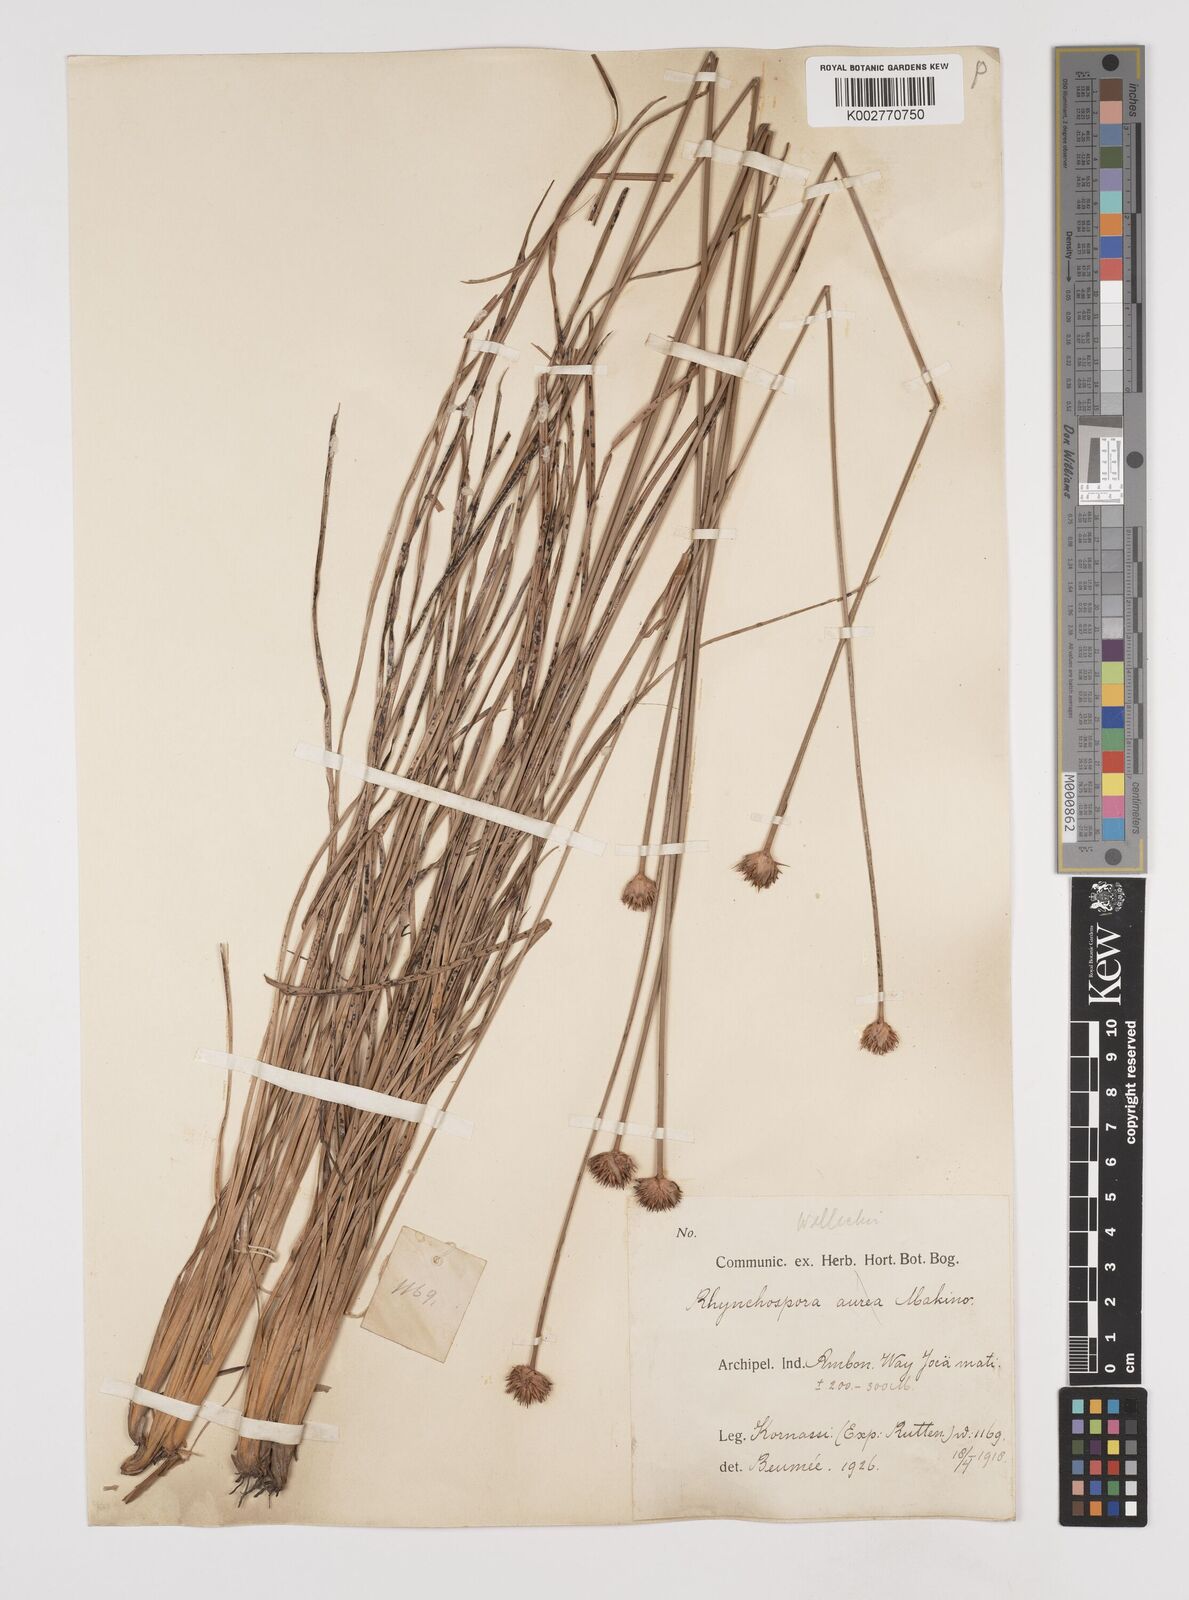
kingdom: Plantae
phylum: Tracheophyta
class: Liliopsida
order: Poales
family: Cyperaceae
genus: Rhynchospora
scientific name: Rhynchospora rubra
